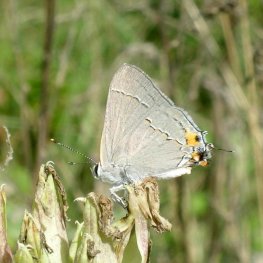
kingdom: Animalia
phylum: Arthropoda
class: Insecta
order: Lepidoptera
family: Lycaenidae
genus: Strymon
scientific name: Strymon melinus
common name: Gray Hairstreak
